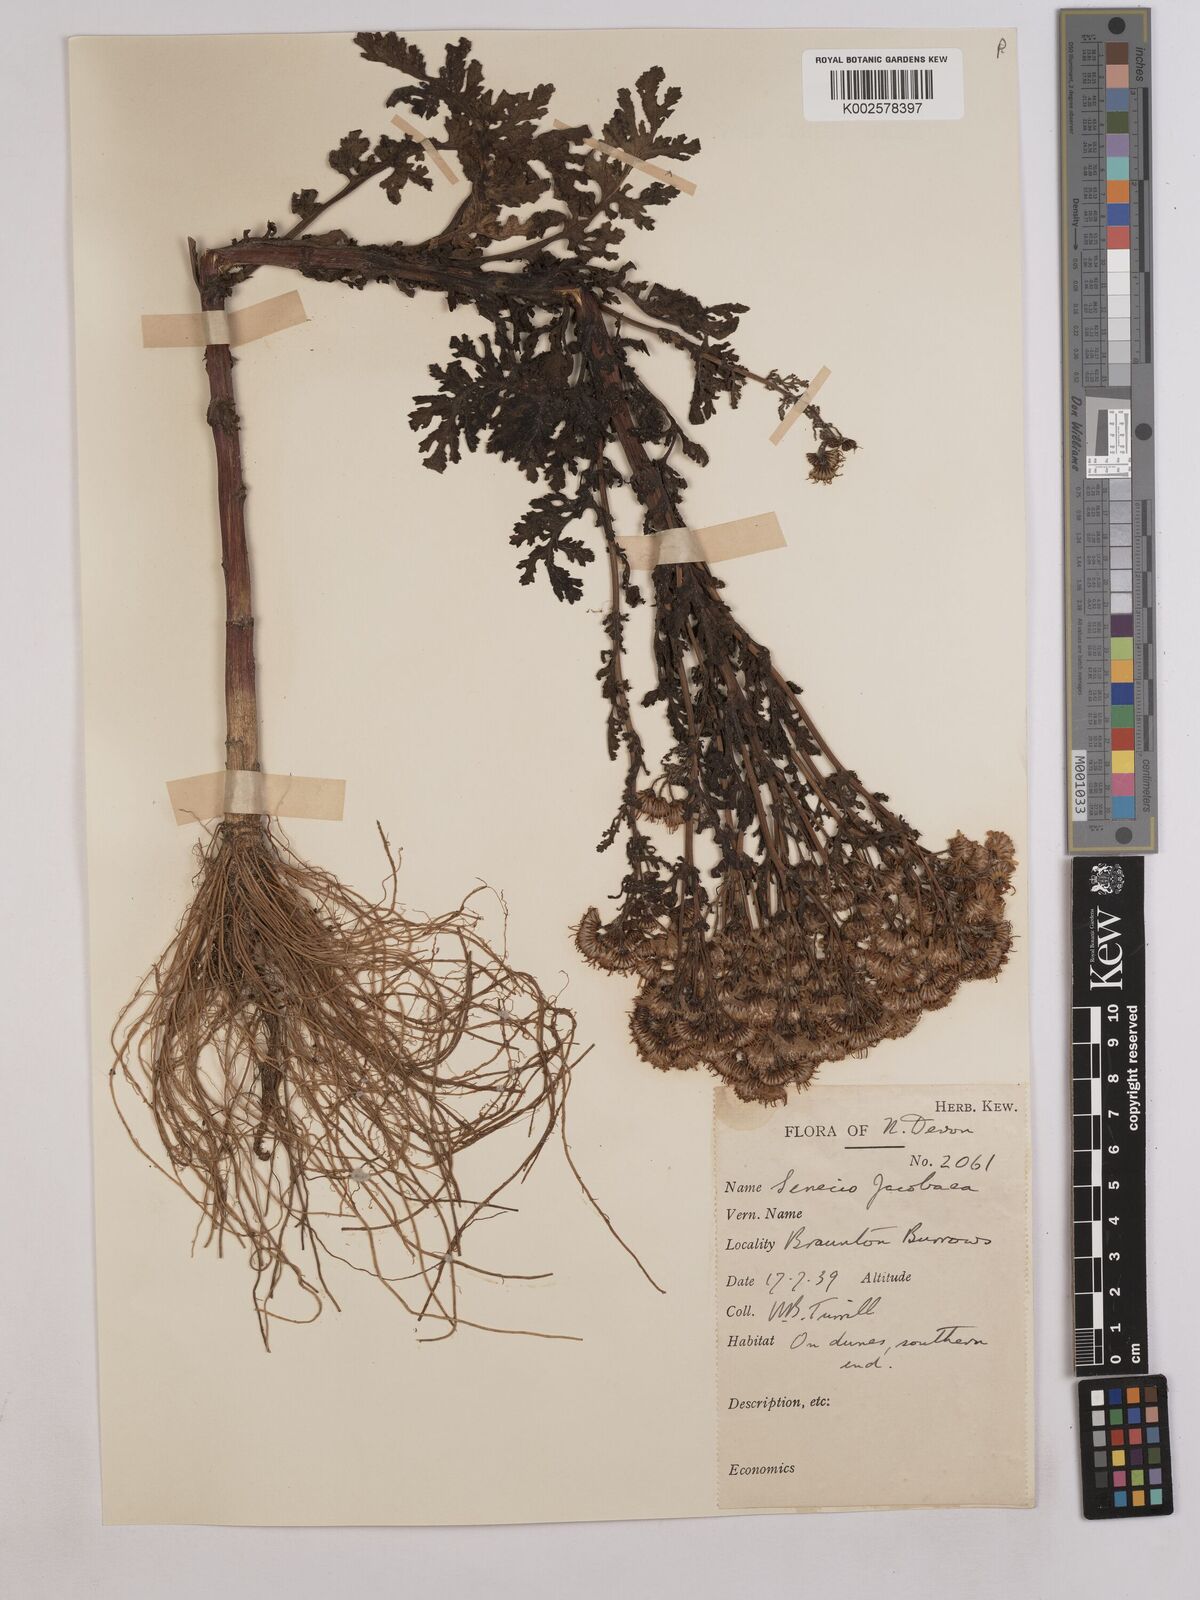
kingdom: Plantae
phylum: Tracheophyta
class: Magnoliopsida
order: Asterales
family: Asteraceae
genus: Jacobaea
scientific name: Jacobaea vulgaris
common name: Stinking willie
